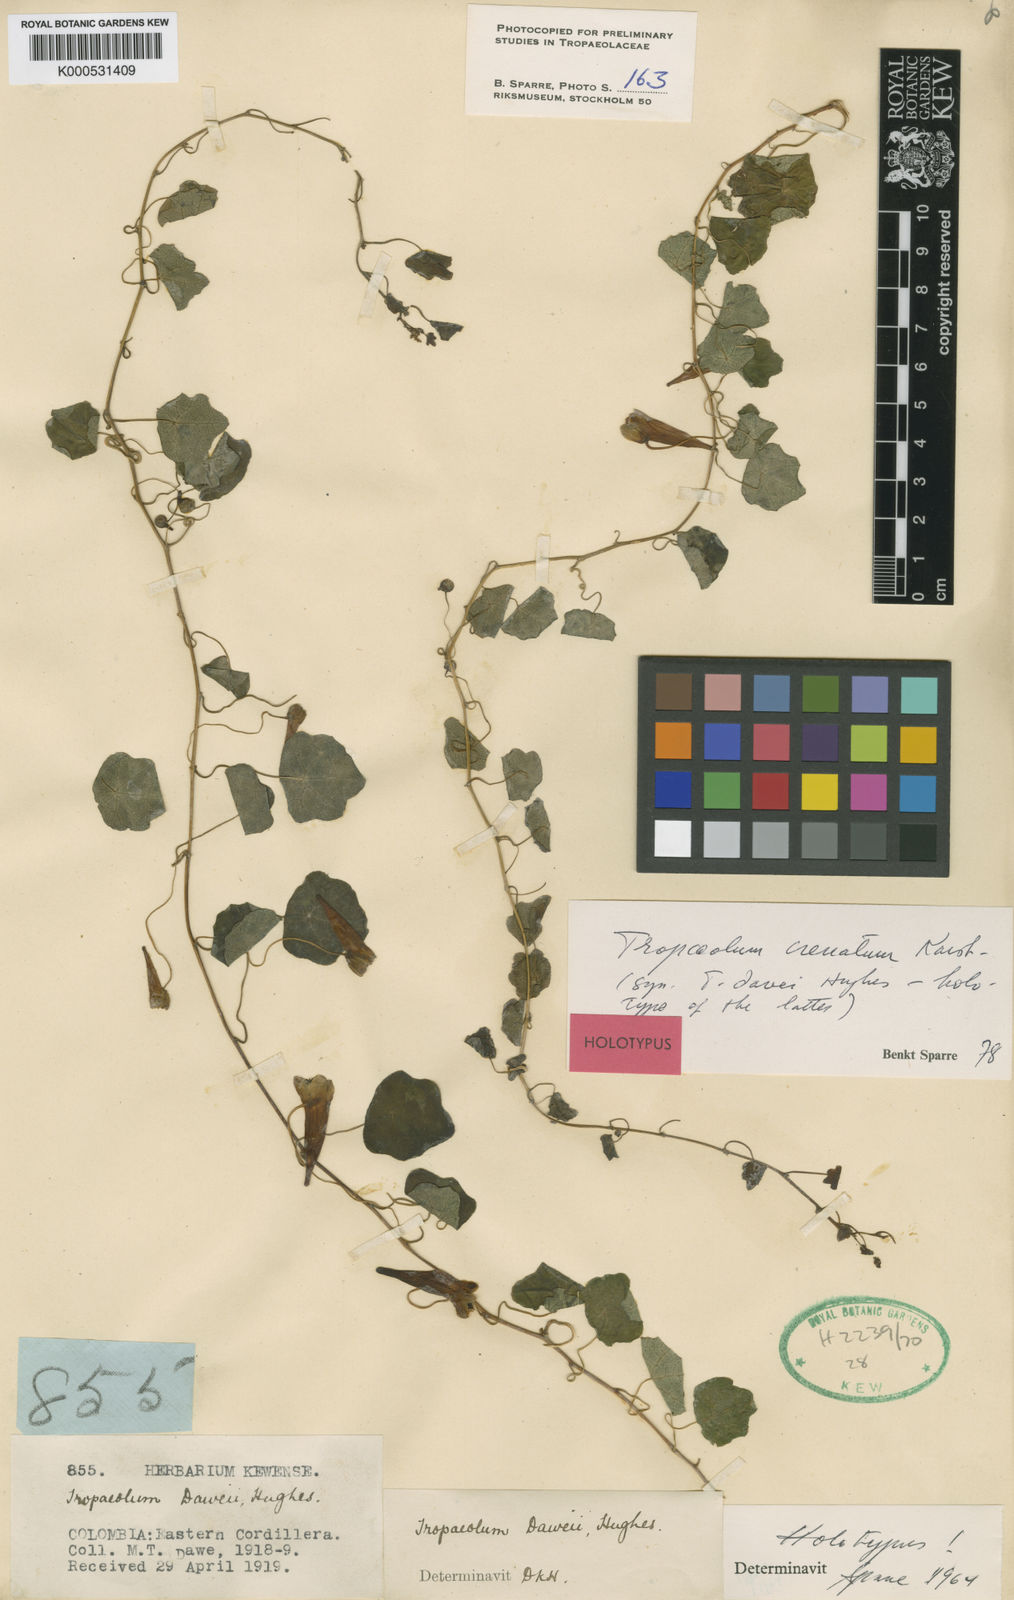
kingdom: Plantae
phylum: Tracheophyta
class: Magnoliopsida
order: Brassicales
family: Tropaeolaceae
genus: Tropaeolum
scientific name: Tropaeolum trilobum
